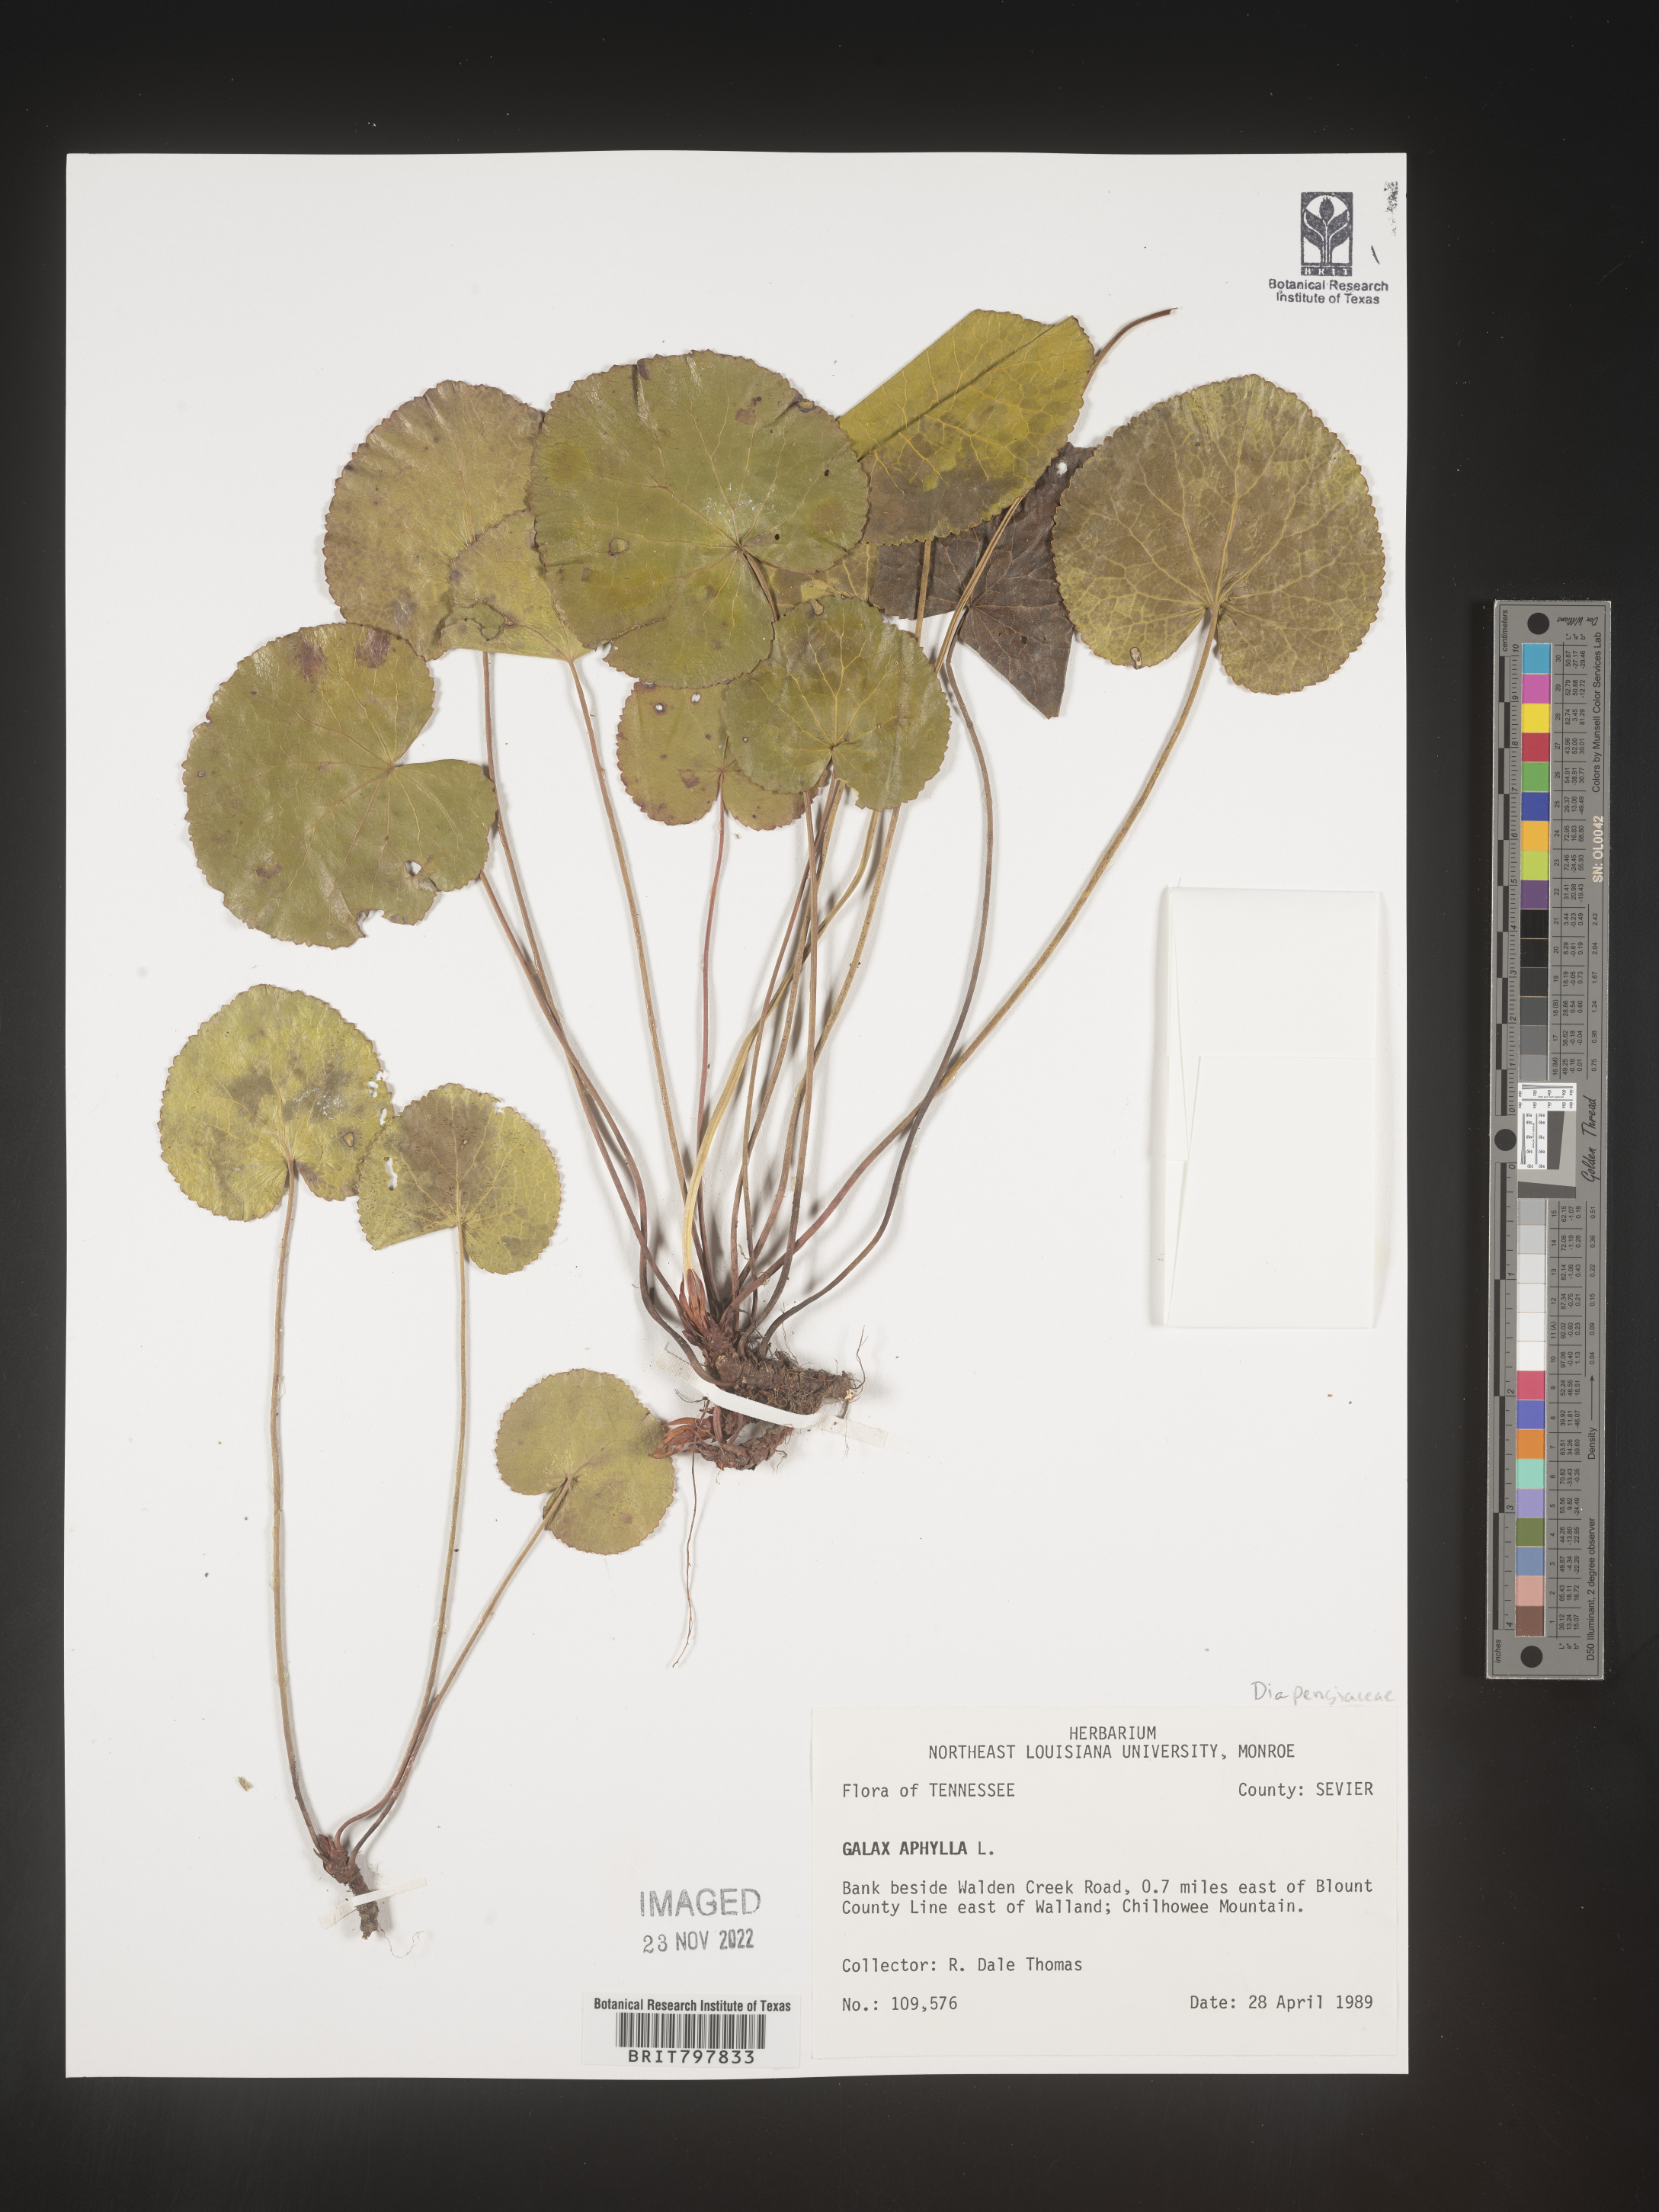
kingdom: Plantae
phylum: Tracheophyta
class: Magnoliopsida
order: Ericales
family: Diapensiaceae
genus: Galax
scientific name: Galax
